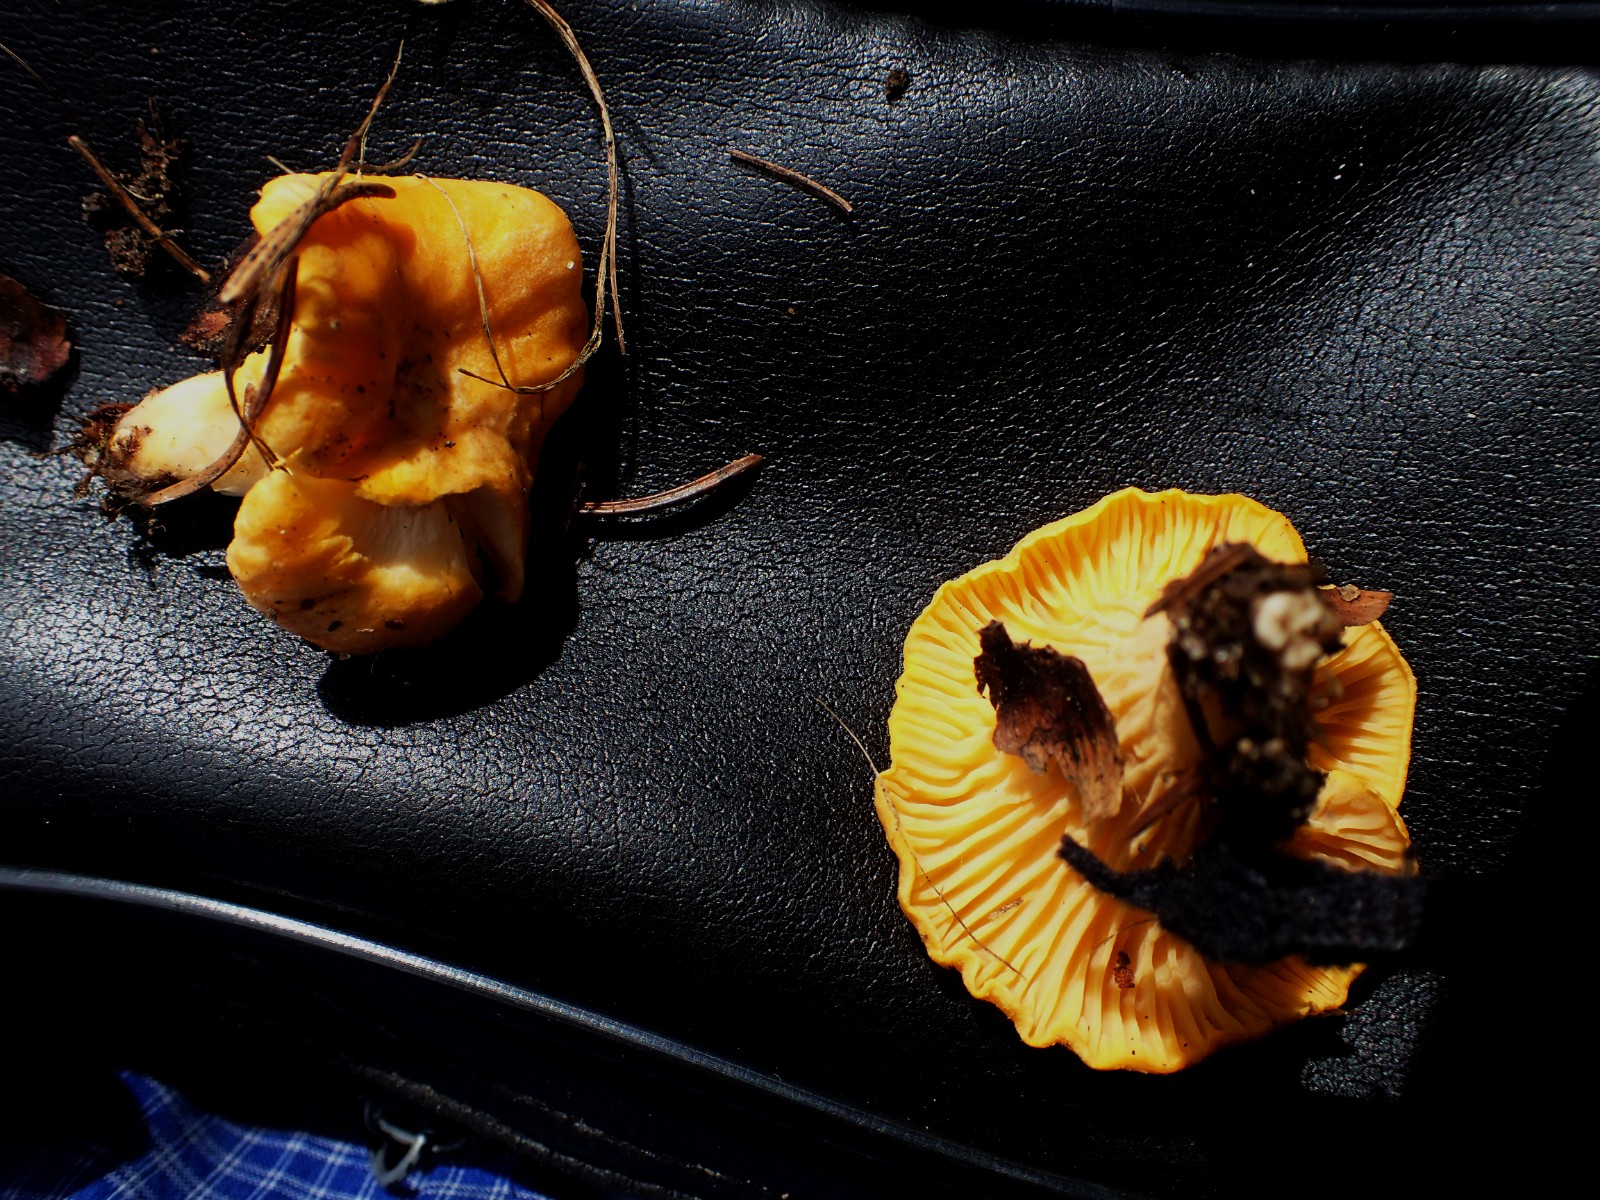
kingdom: Fungi
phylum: Basidiomycota
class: Agaricomycetes
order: Cantharellales
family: Hydnaceae
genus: Cantharellus
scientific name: Cantharellus cibarius
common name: almindelig kantarel
